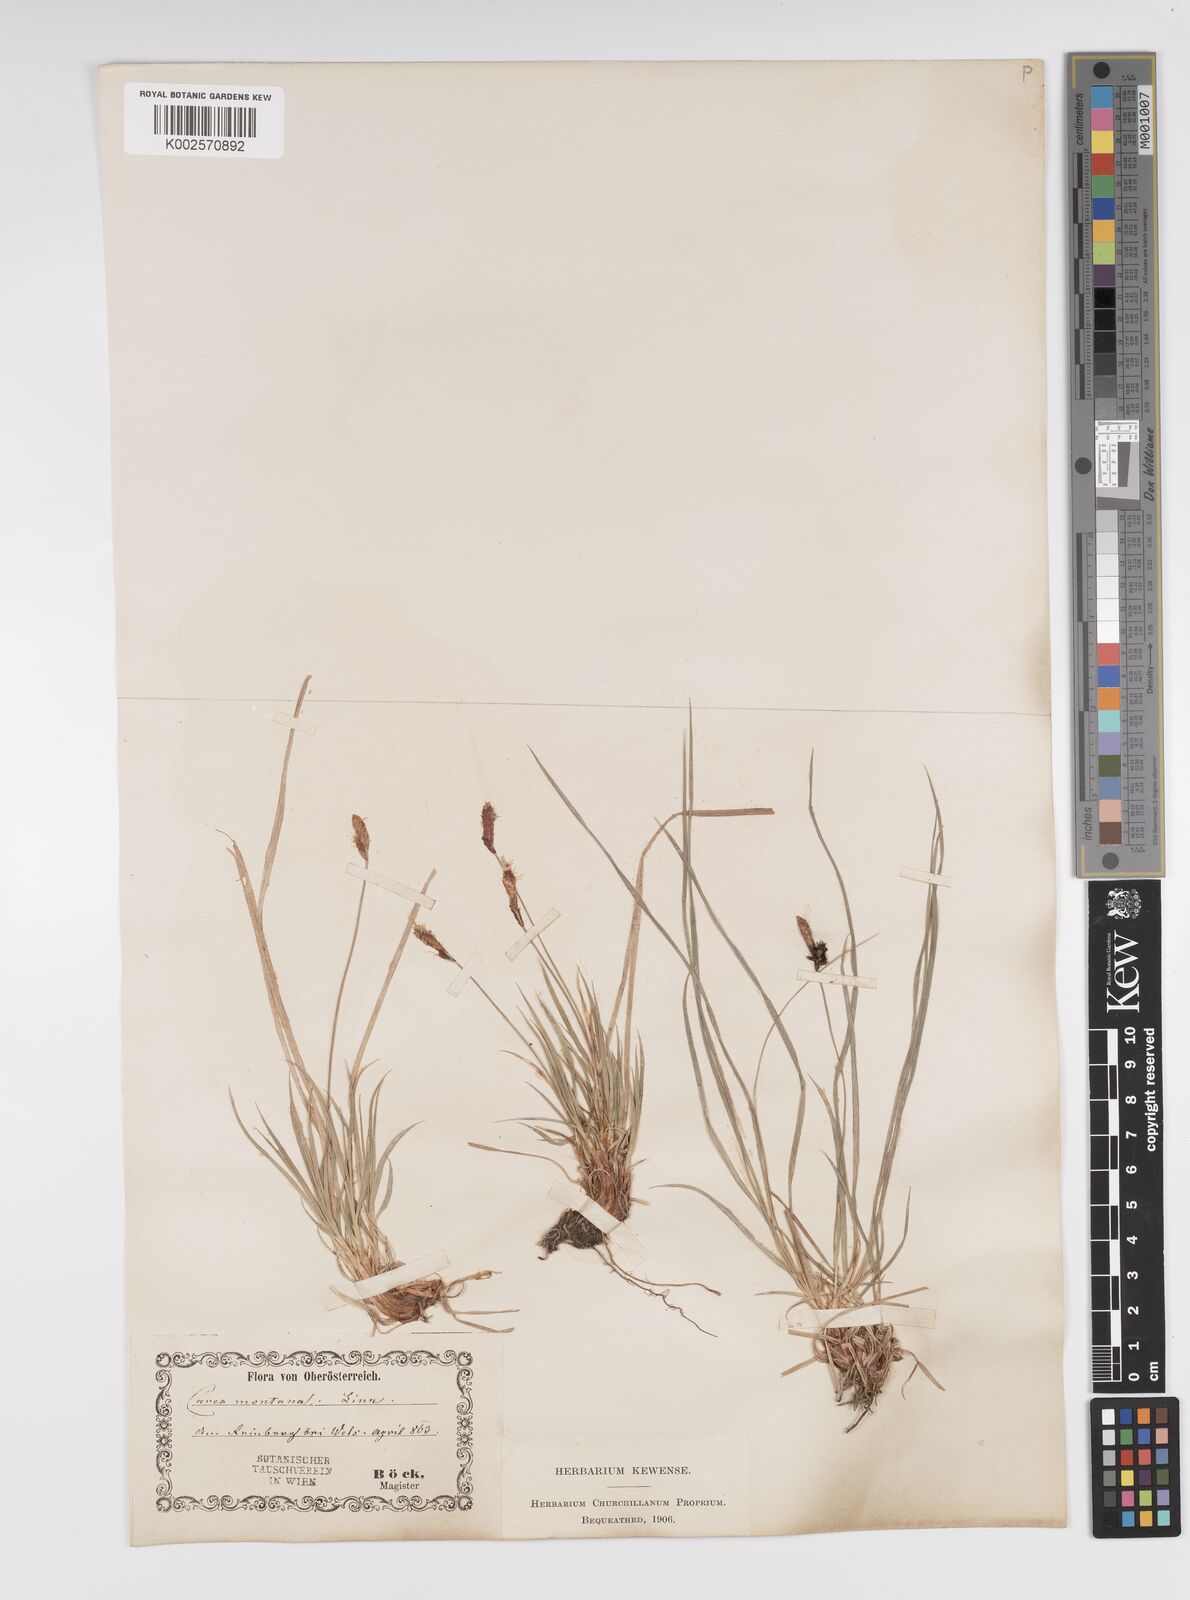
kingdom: Plantae
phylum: Tracheophyta
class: Liliopsida
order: Poales
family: Cyperaceae
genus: Carex
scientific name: Carex montana
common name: Soft-leaved sedge
